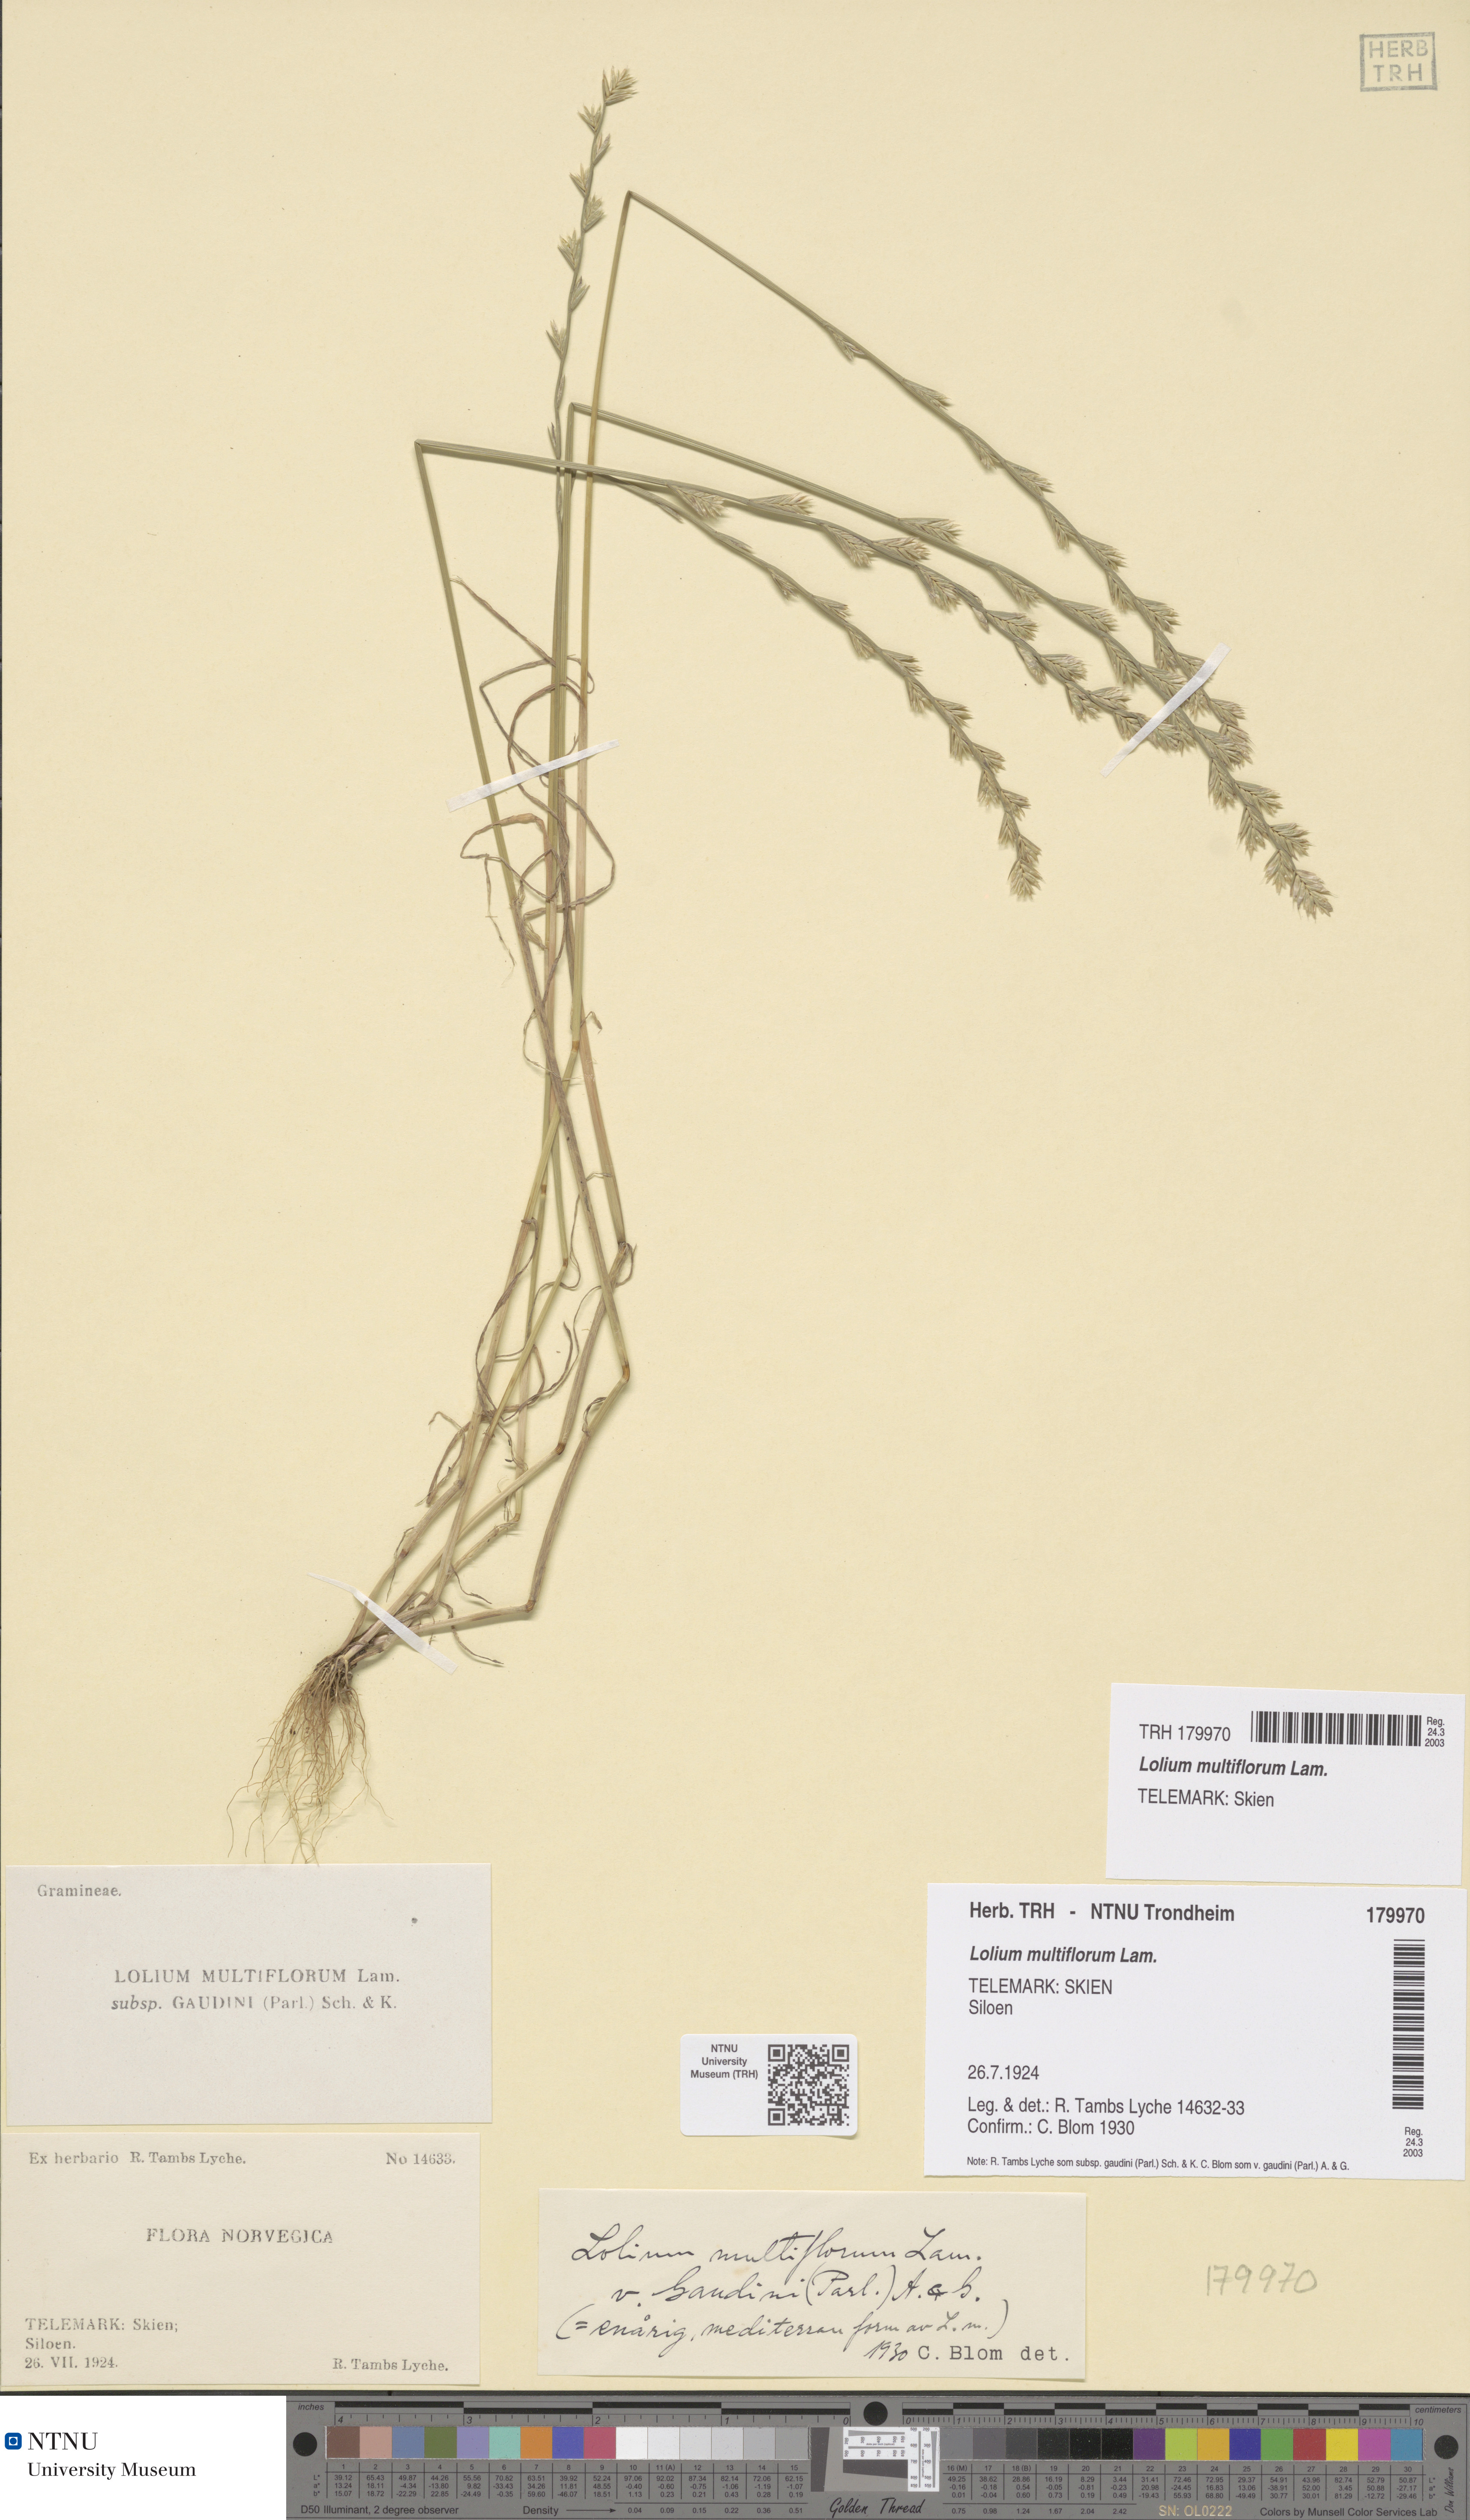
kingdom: Plantae
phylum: Tracheophyta
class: Liliopsida
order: Poales
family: Poaceae
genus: Lolium
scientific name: Lolium multiflorum
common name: Annual ryegrass
